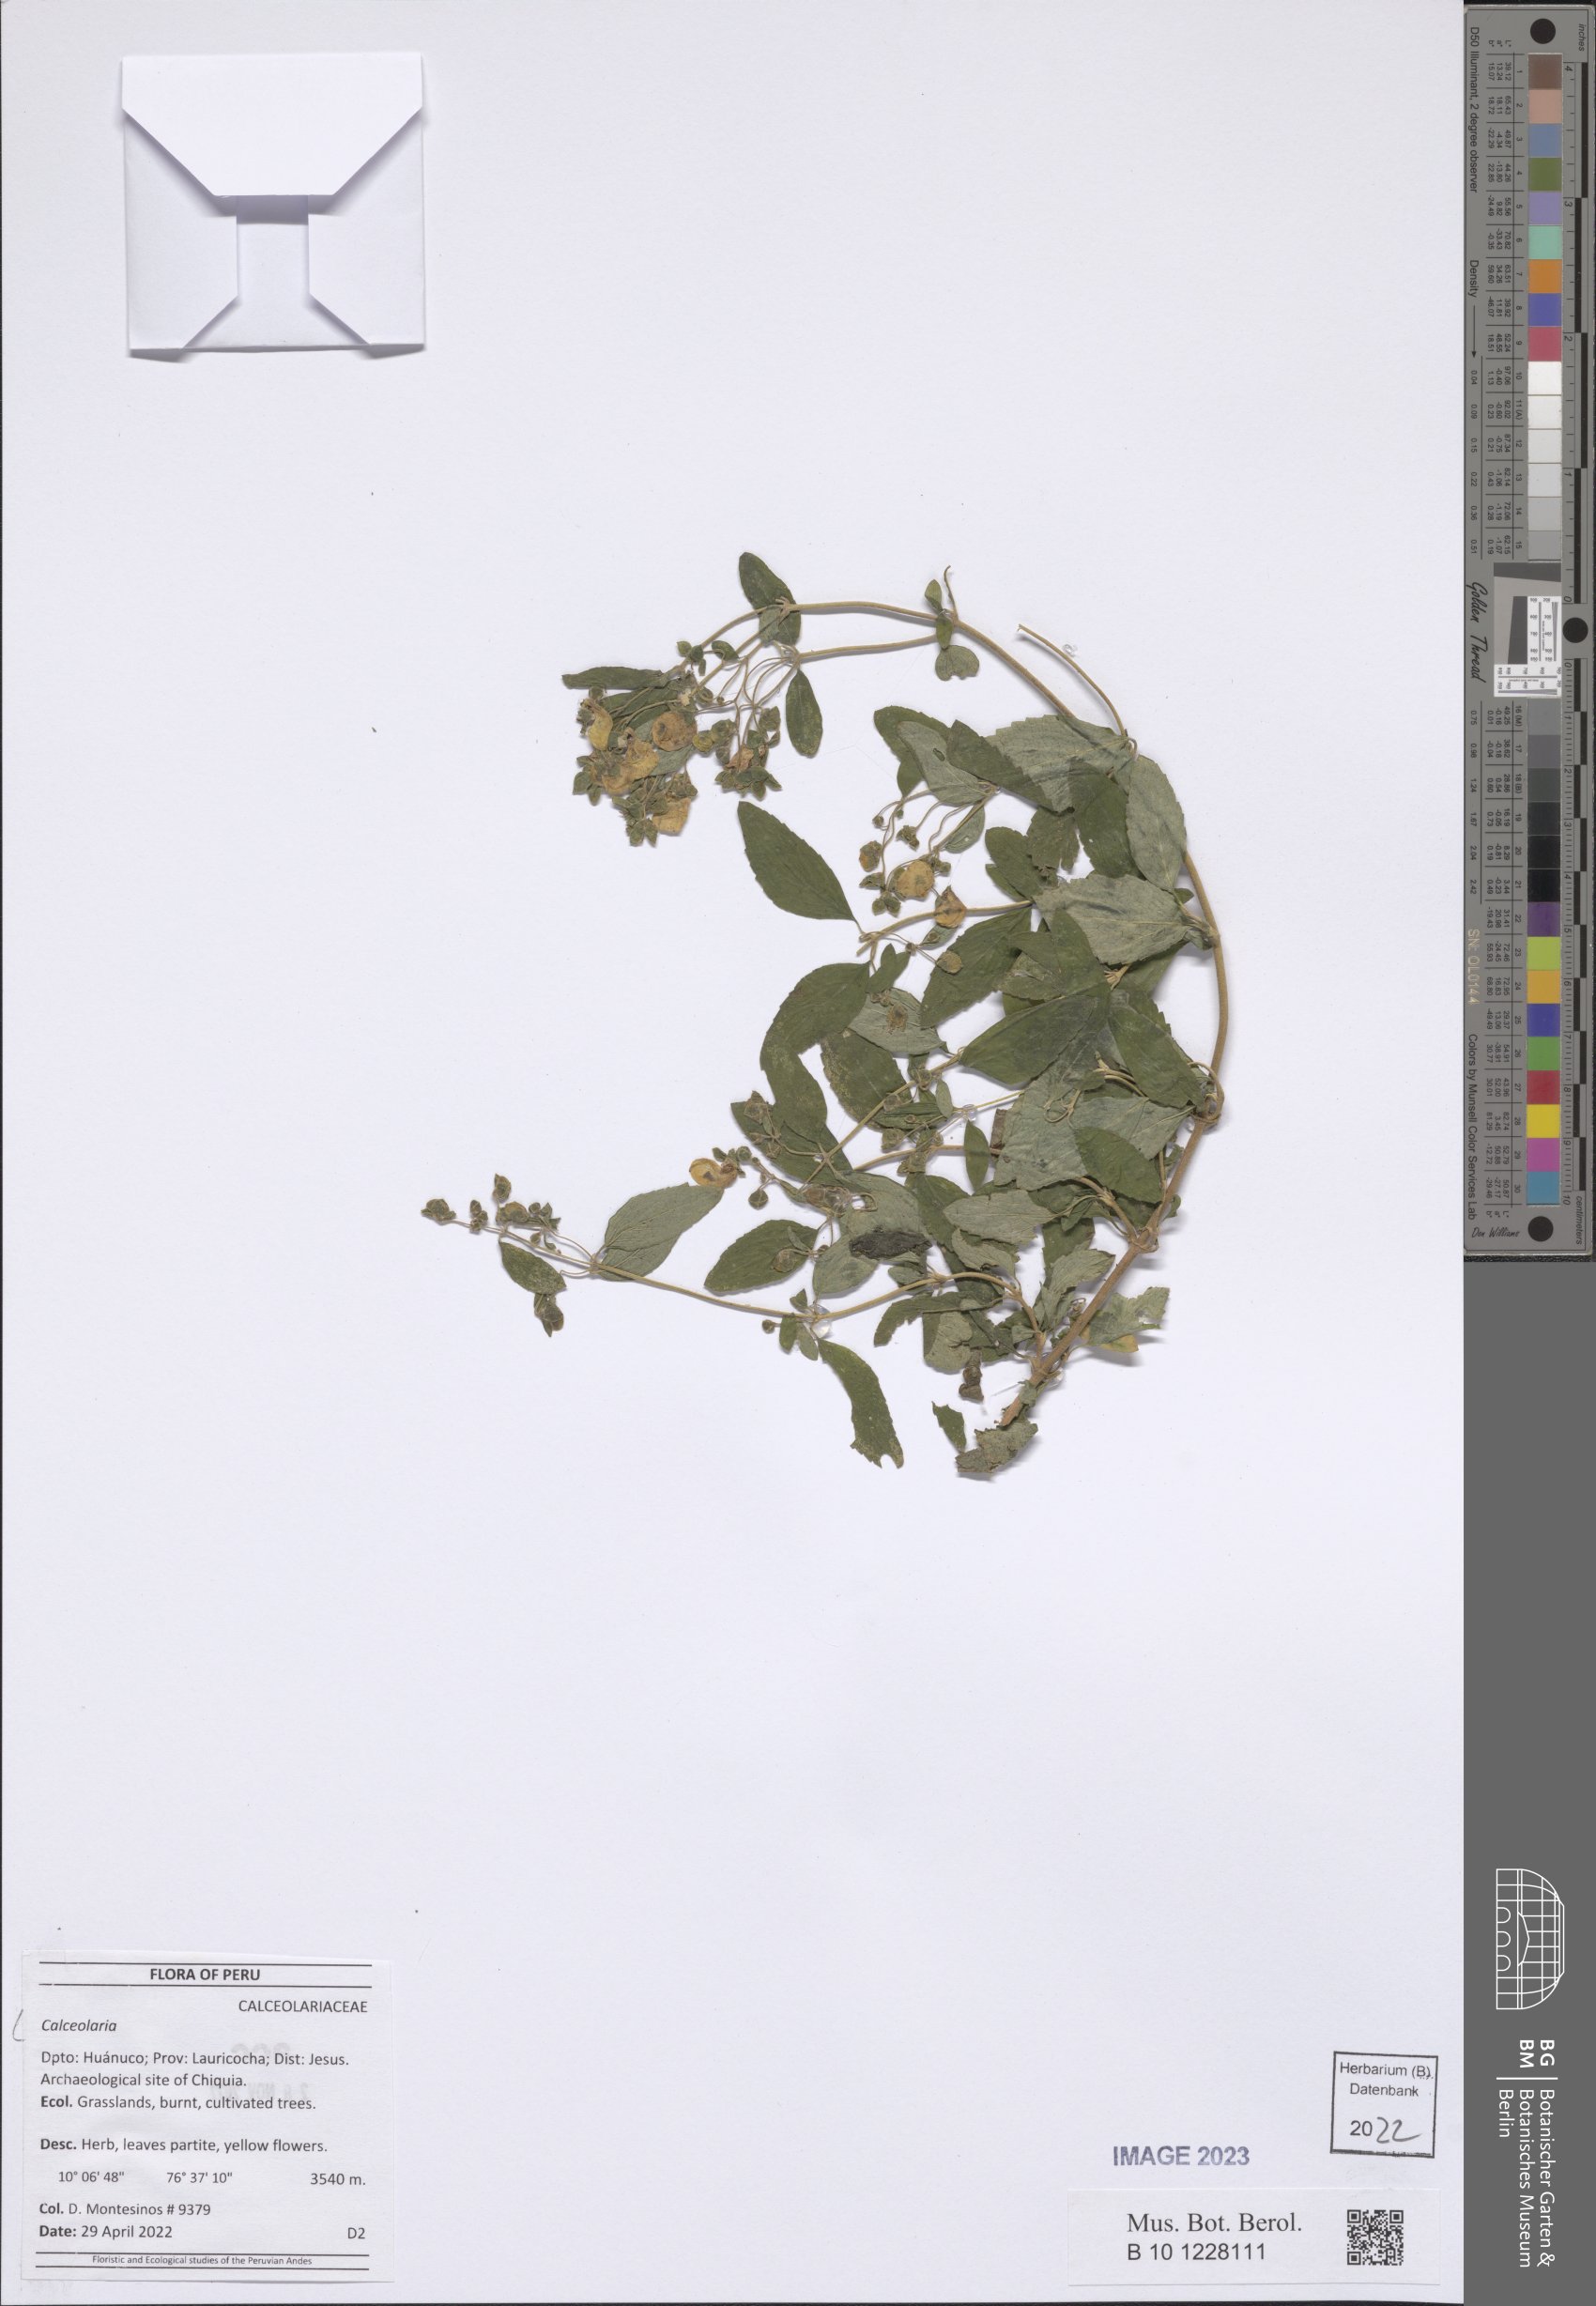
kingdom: Plantae
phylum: Tracheophyta
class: Magnoliopsida
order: Lamiales
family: Calceolariaceae
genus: Calceolaria
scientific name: Calceolaria
